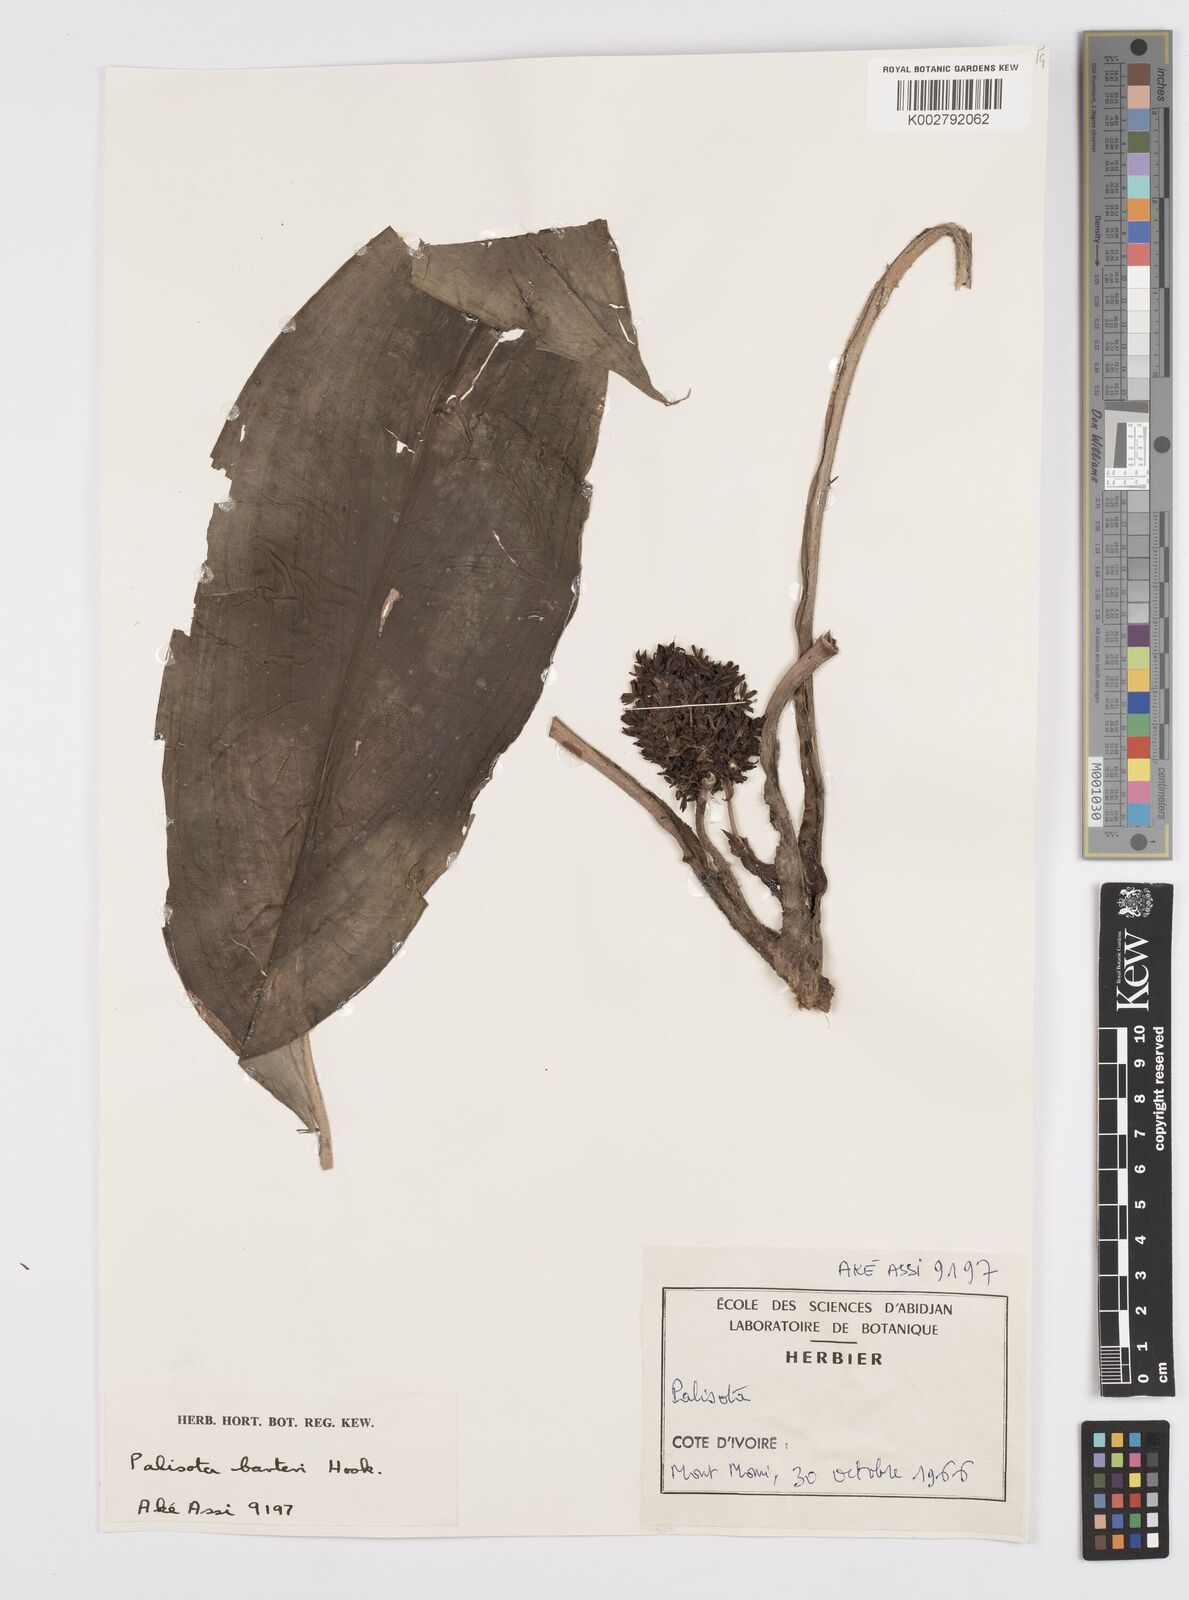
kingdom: Plantae
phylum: Tracheophyta
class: Liliopsida
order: Commelinales
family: Commelinaceae
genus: Palisota
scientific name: Palisota barteri
